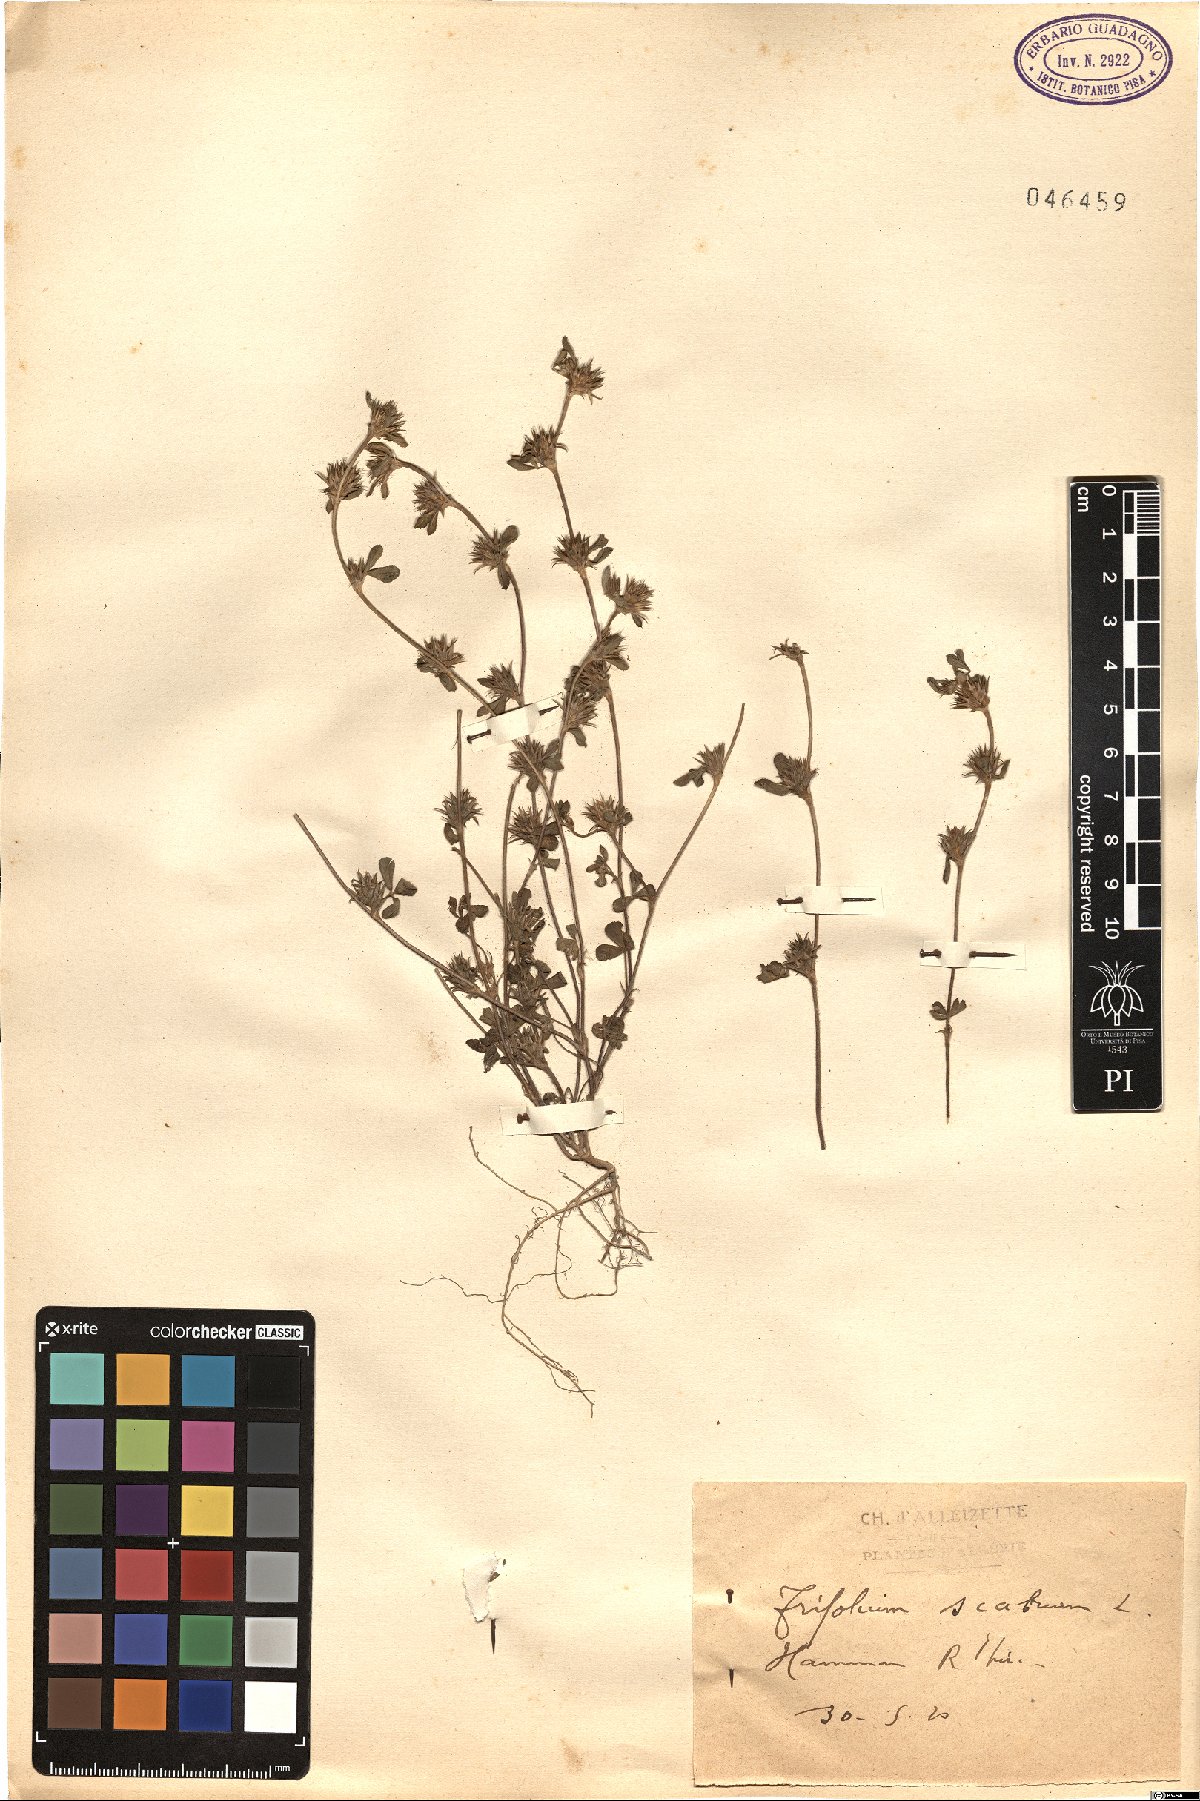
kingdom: Plantae
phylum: Tracheophyta
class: Magnoliopsida
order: Fabales
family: Fabaceae
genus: Trifolium
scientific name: Trifolium scabrum
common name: Rough clover
